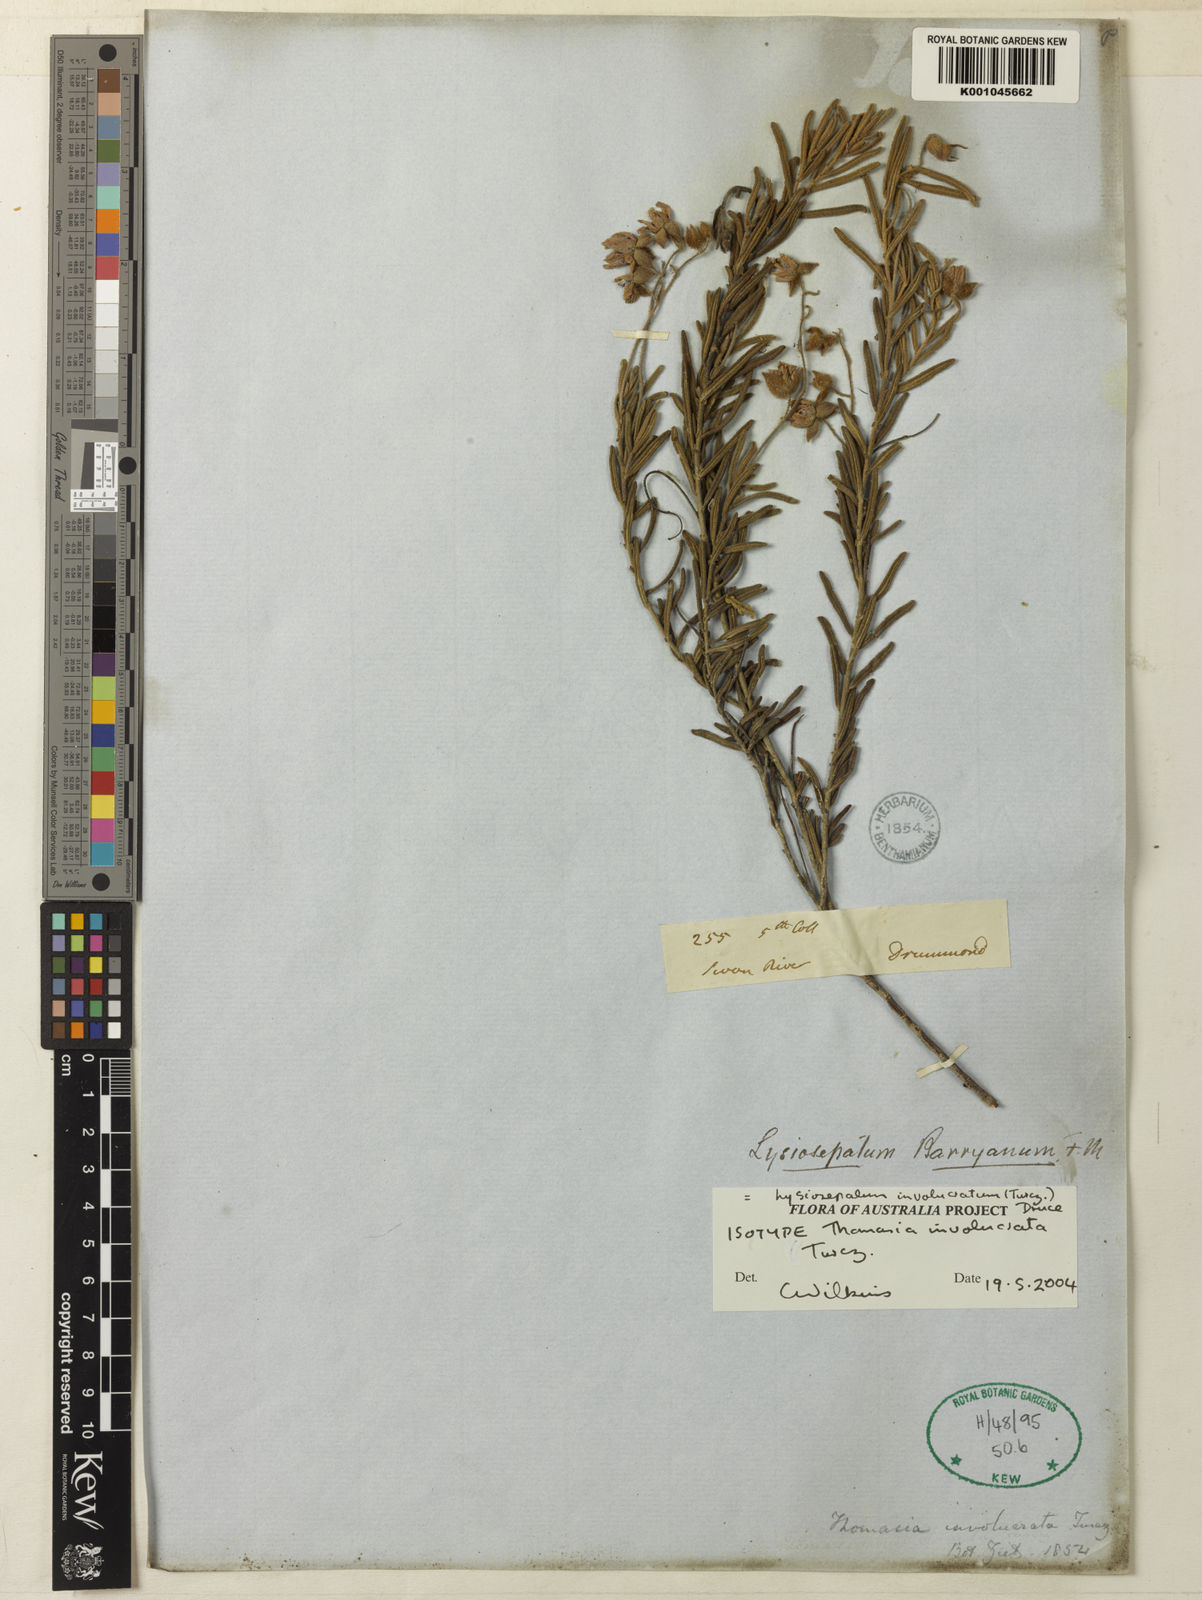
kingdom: Plantae
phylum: Tracheophyta
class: Magnoliopsida
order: Malvales
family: Malvaceae
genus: Lysiosepalum
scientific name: Lysiosepalum involucratum
